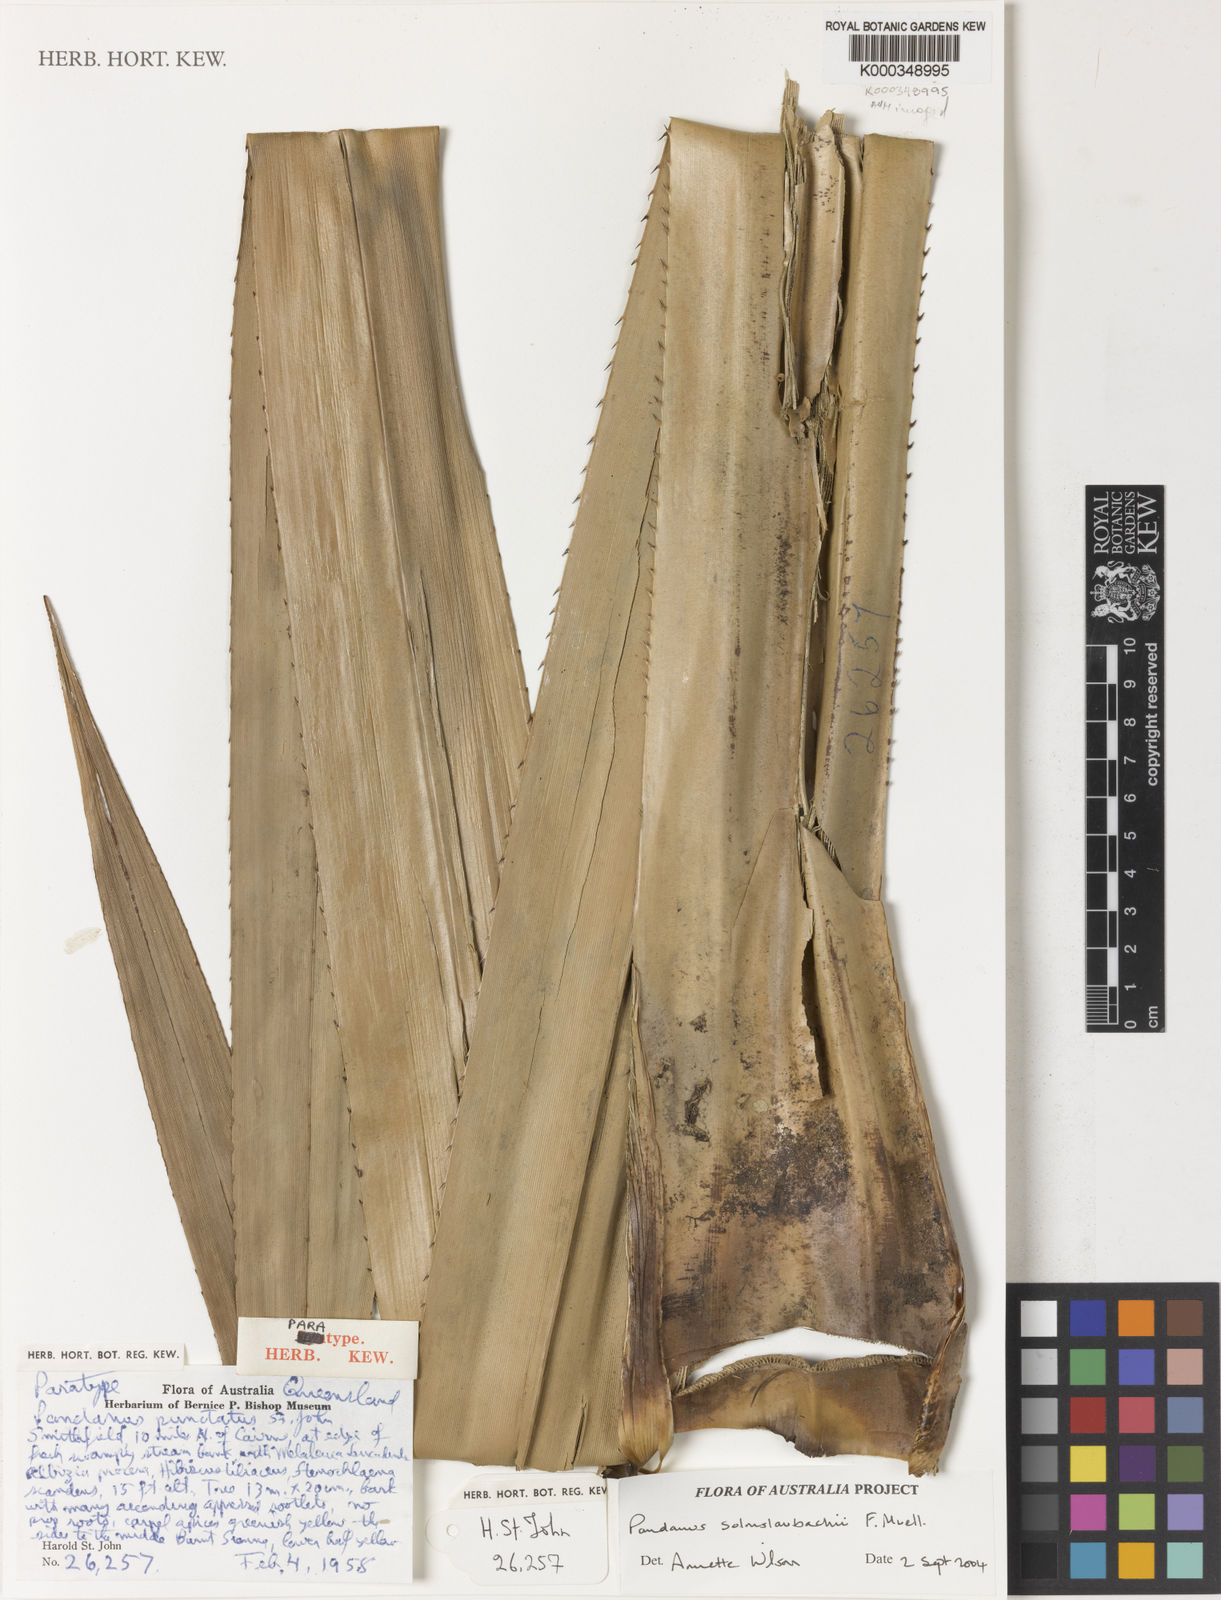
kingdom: Plantae
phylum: Tracheophyta
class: Liliopsida
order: Pandanales
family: Pandanaceae
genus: Pandanus
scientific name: Pandanus solms-laubachii
